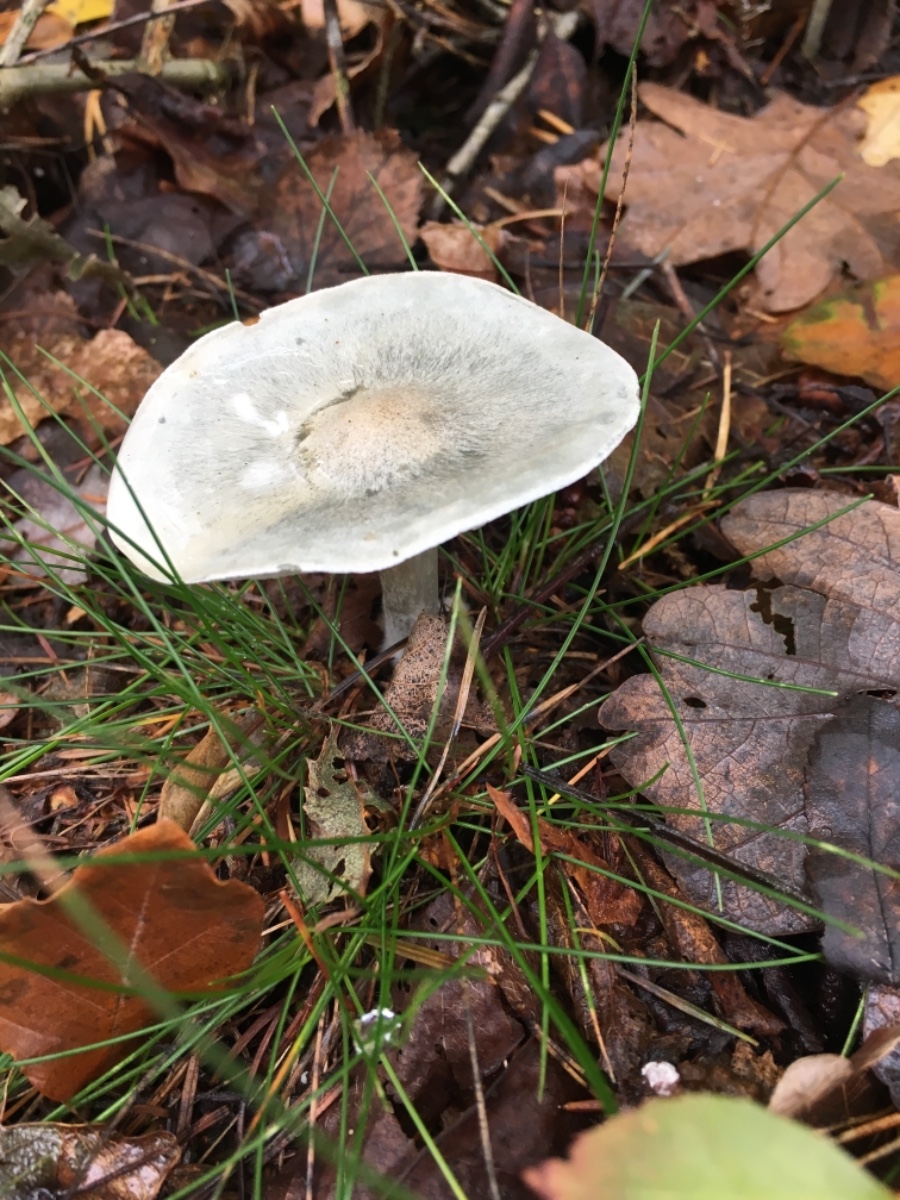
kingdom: Fungi
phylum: Basidiomycota
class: Agaricomycetes
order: Agaricales
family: Tricholomataceae
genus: Clitocybe
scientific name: Clitocybe odora
